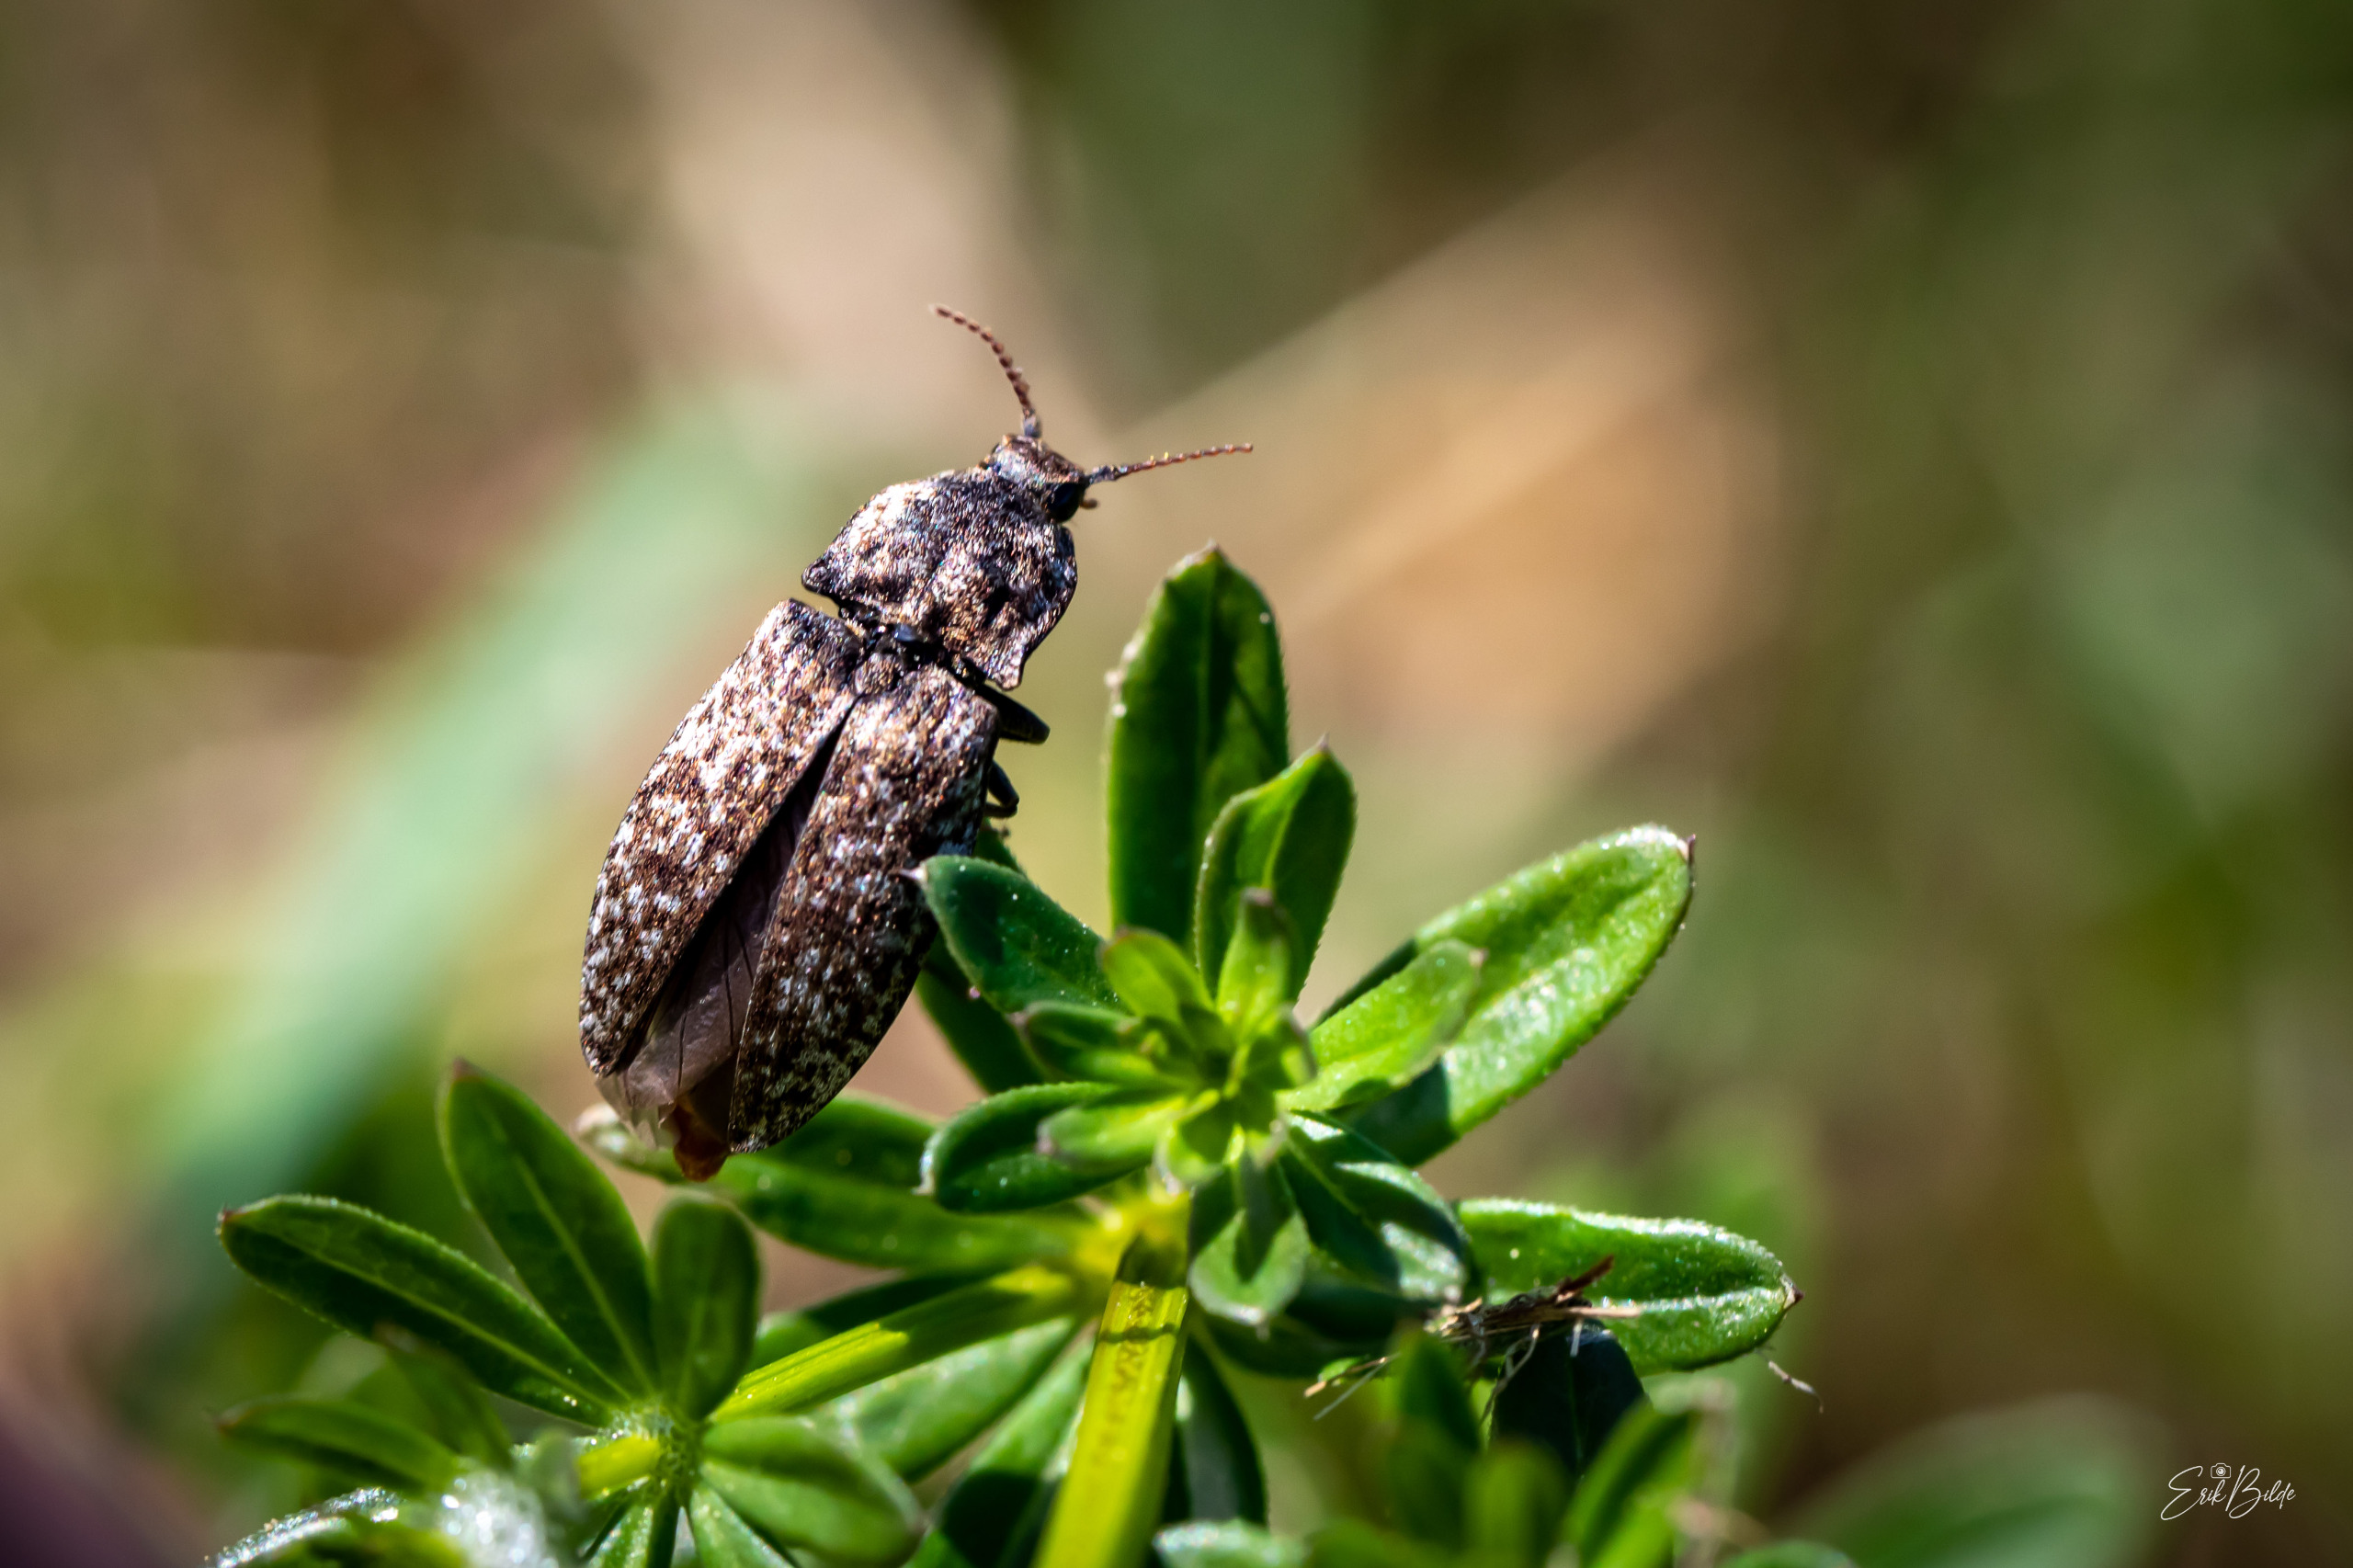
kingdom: Animalia
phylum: Arthropoda
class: Insecta
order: Coleoptera
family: Elateridae
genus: Agrypnus
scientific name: Agrypnus murinus
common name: Musegrå smælder
